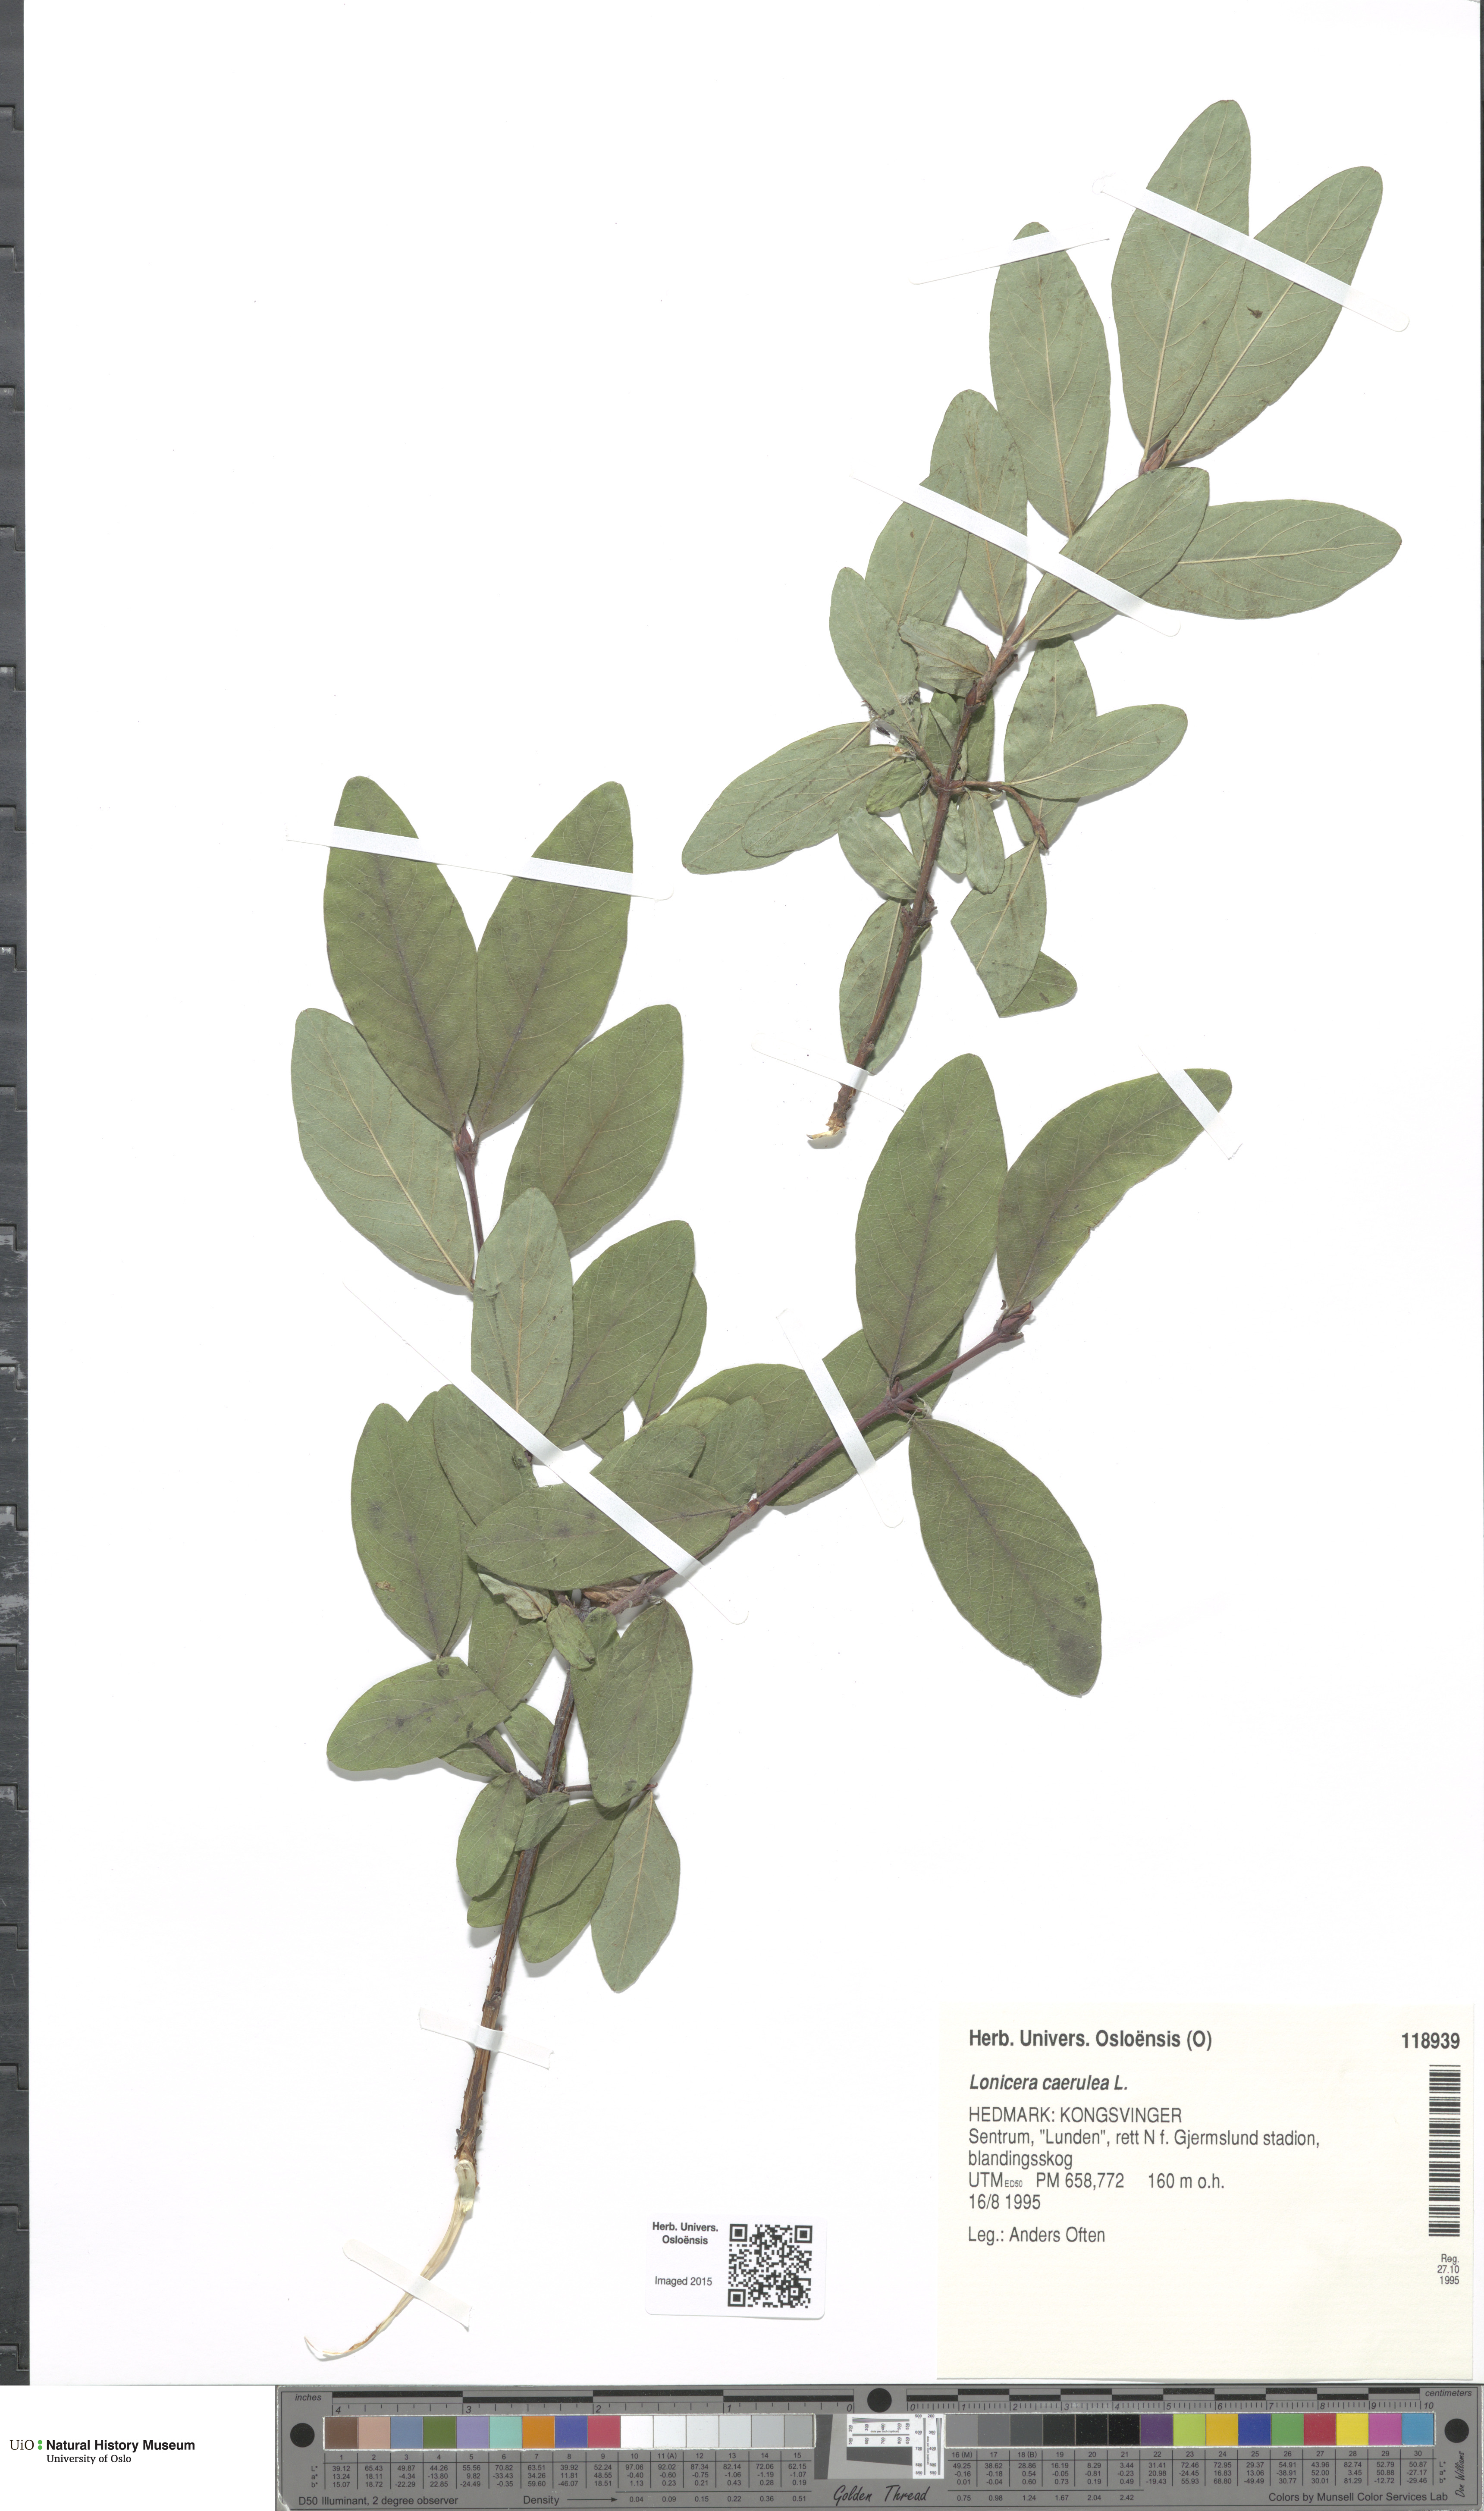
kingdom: Plantae
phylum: Tracheophyta
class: Magnoliopsida
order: Dipsacales
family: Caprifoliaceae
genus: Lonicera
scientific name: Lonicera caerulea
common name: Blue honeysuckle
